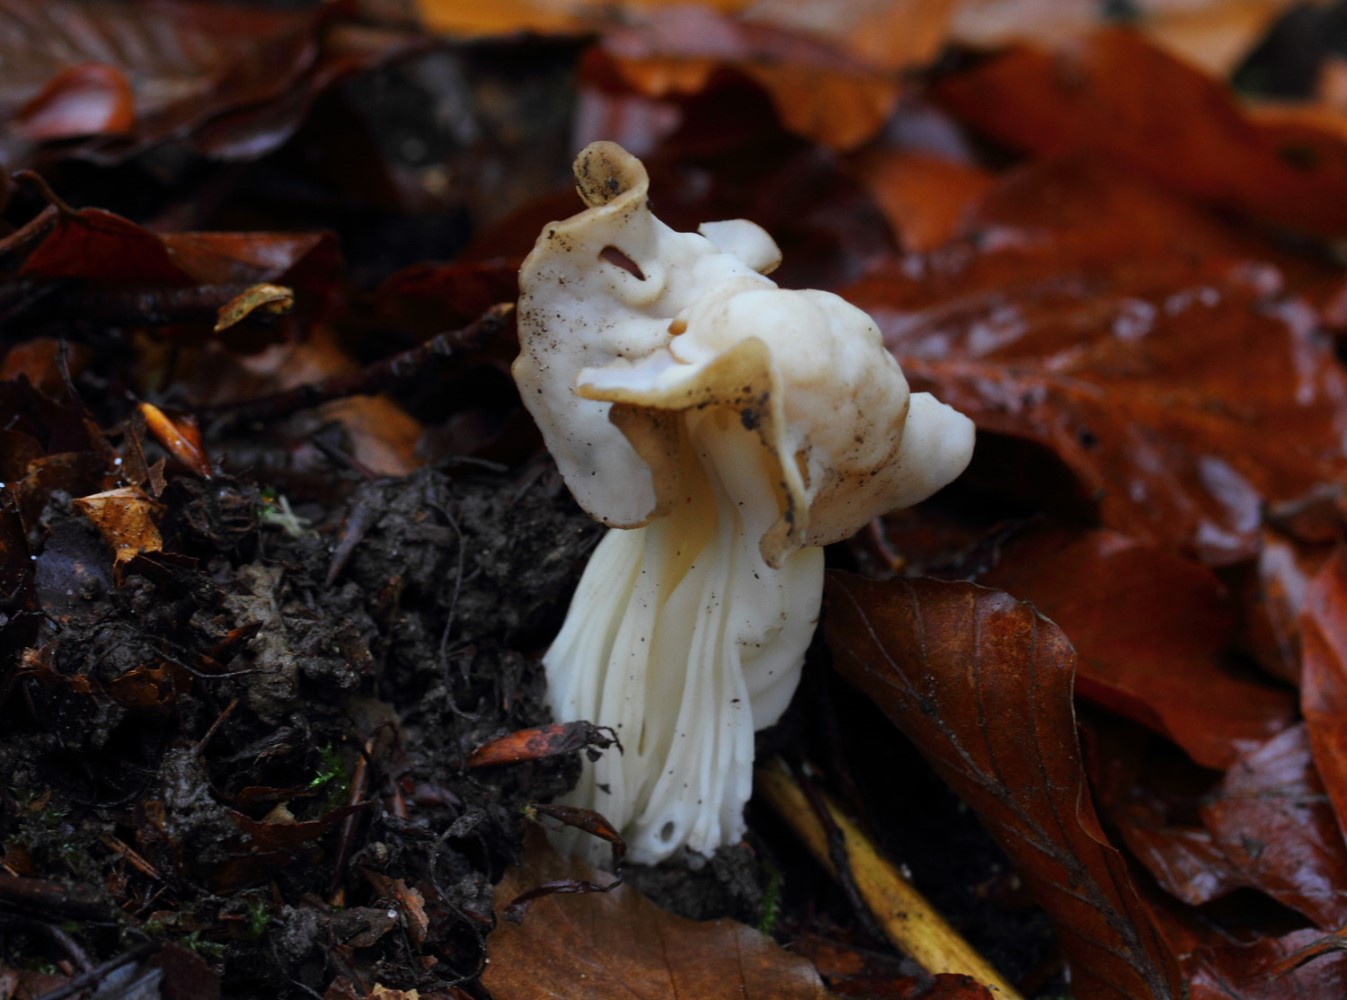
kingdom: Fungi
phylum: Ascomycota
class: Pezizomycetes
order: Pezizales
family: Helvellaceae
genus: Helvella
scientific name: Helvella crispa
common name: kruset foldhat
